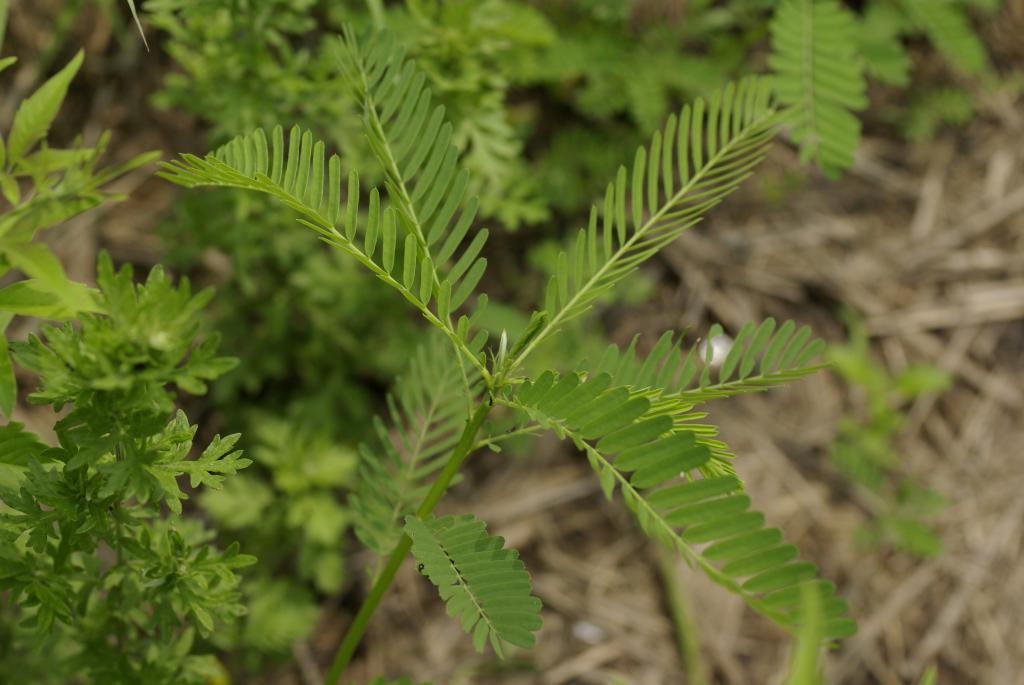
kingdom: Plantae
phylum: Tracheophyta
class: Magnoliopsida
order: Fabales
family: Fabaceae
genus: Sesbania
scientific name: Sesbania cannabina
